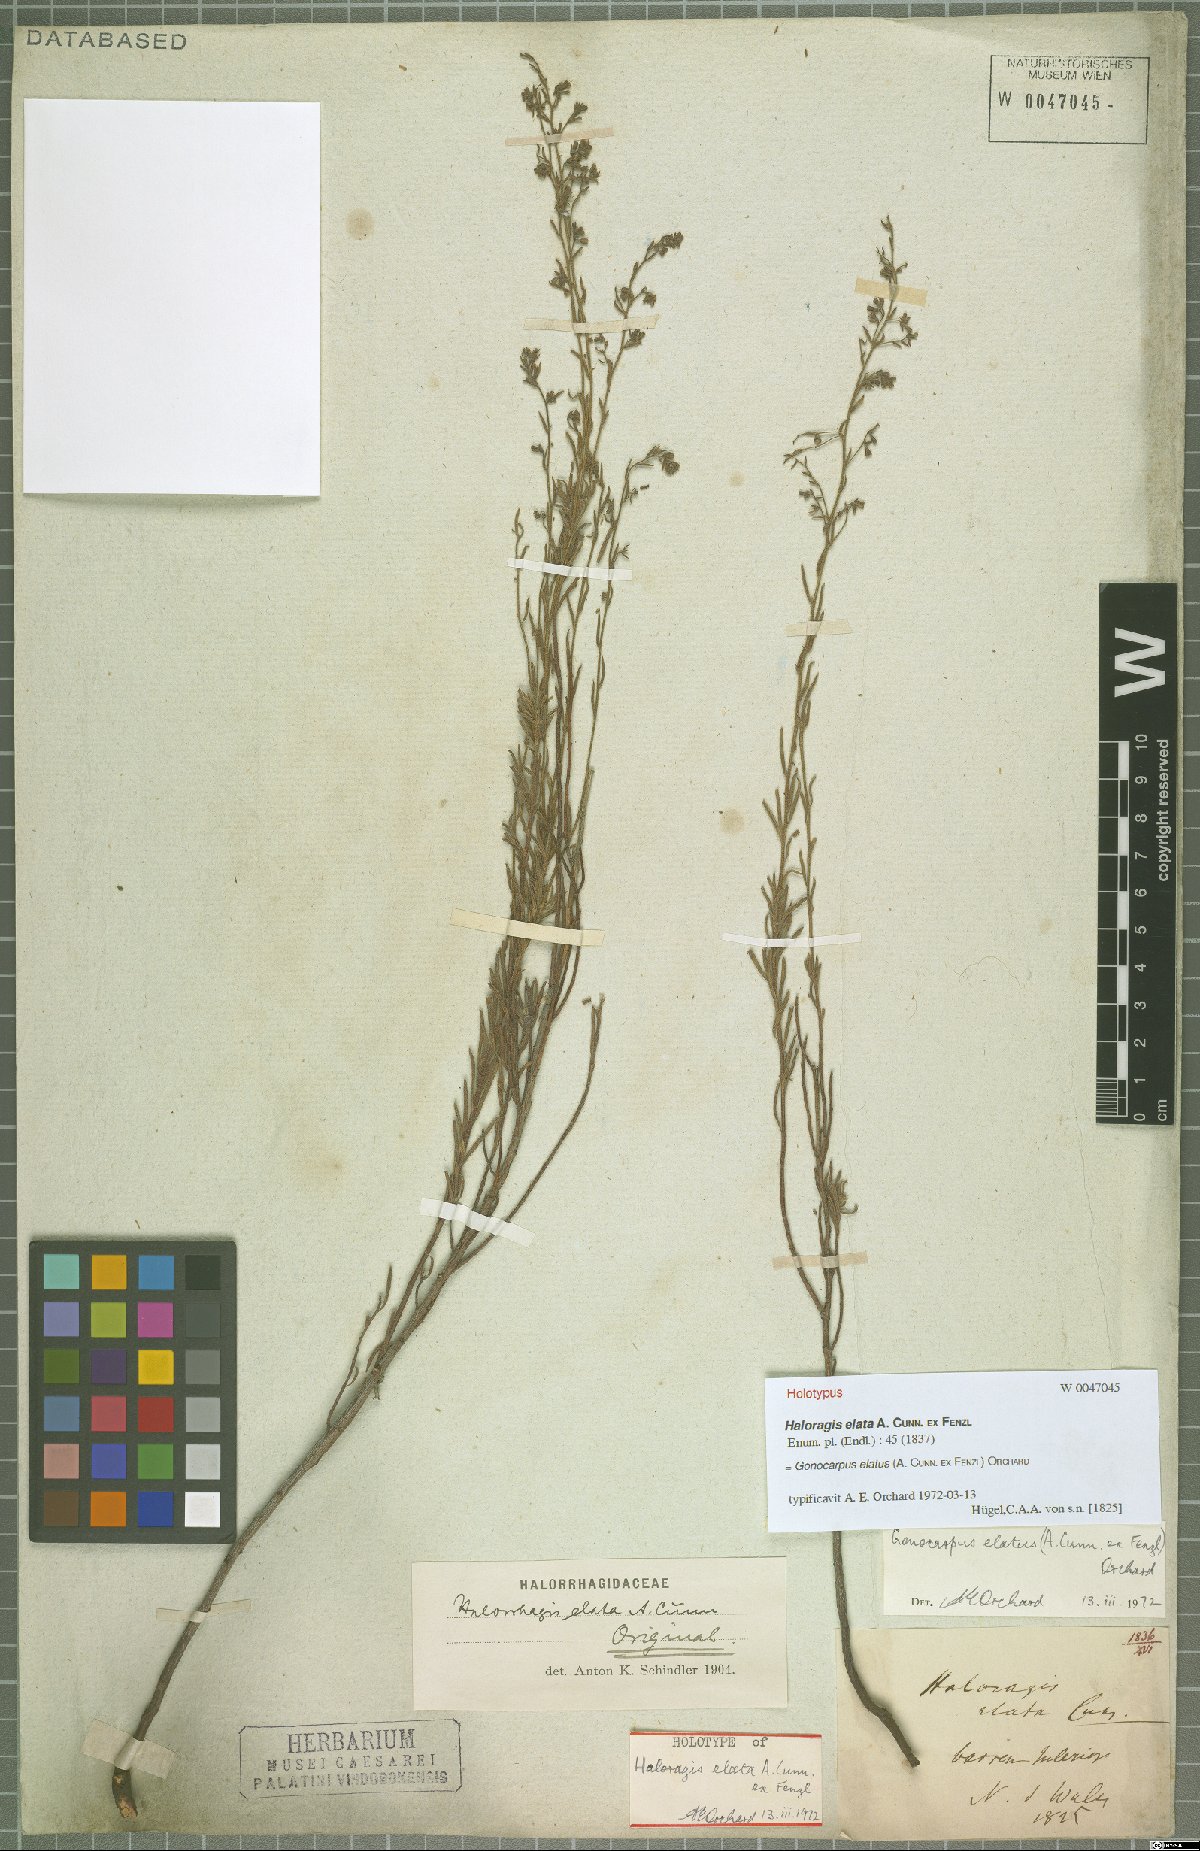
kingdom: Plantae
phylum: Tracheophyta
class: Magnoliopsida
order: Saxifragales
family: Haloragaceae
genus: Gonocarpus
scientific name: Gonocarpus elatus
